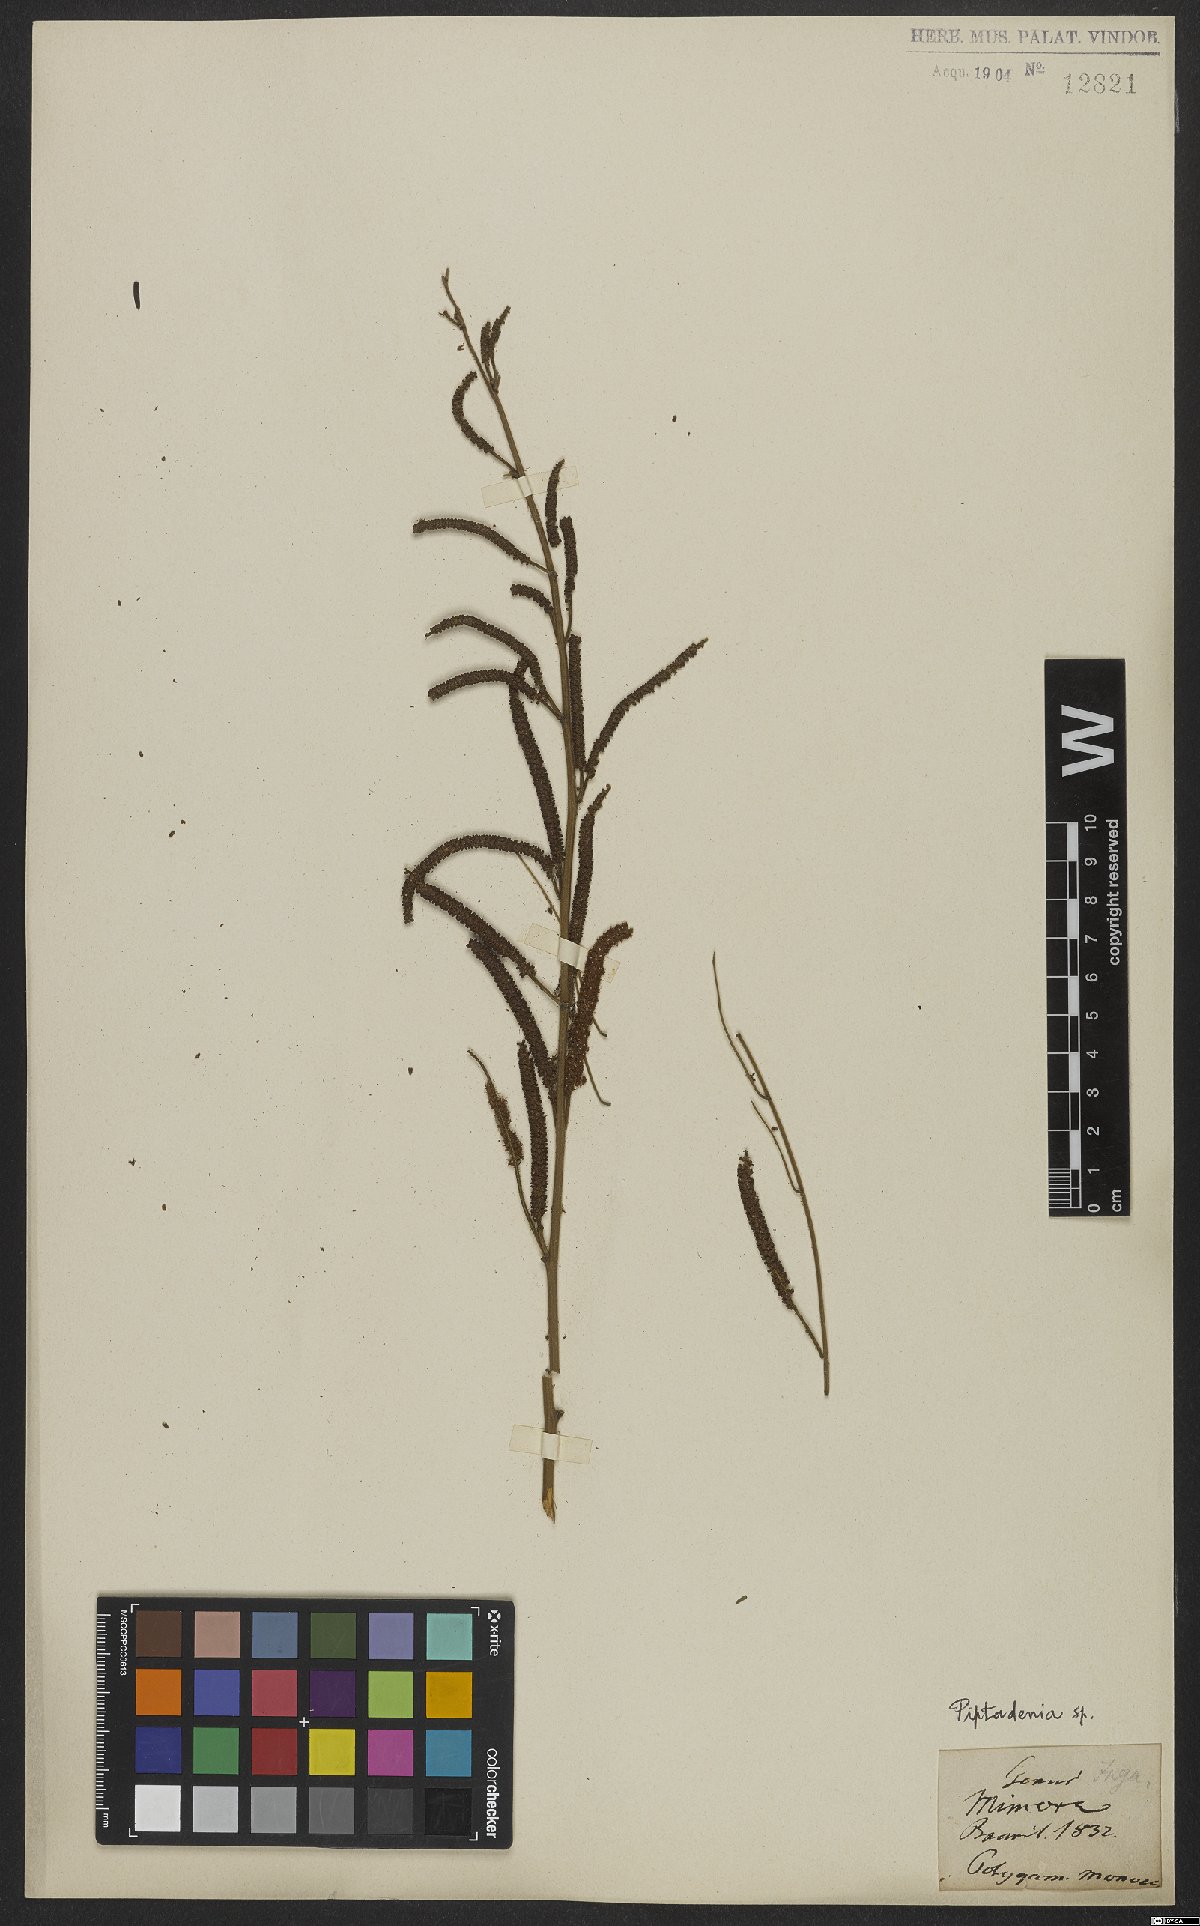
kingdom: Plantae
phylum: Tracheophyta
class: Magnoliopsida
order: Fabales
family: Fabaceae
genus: Piptadenia
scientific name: Piptadenia
